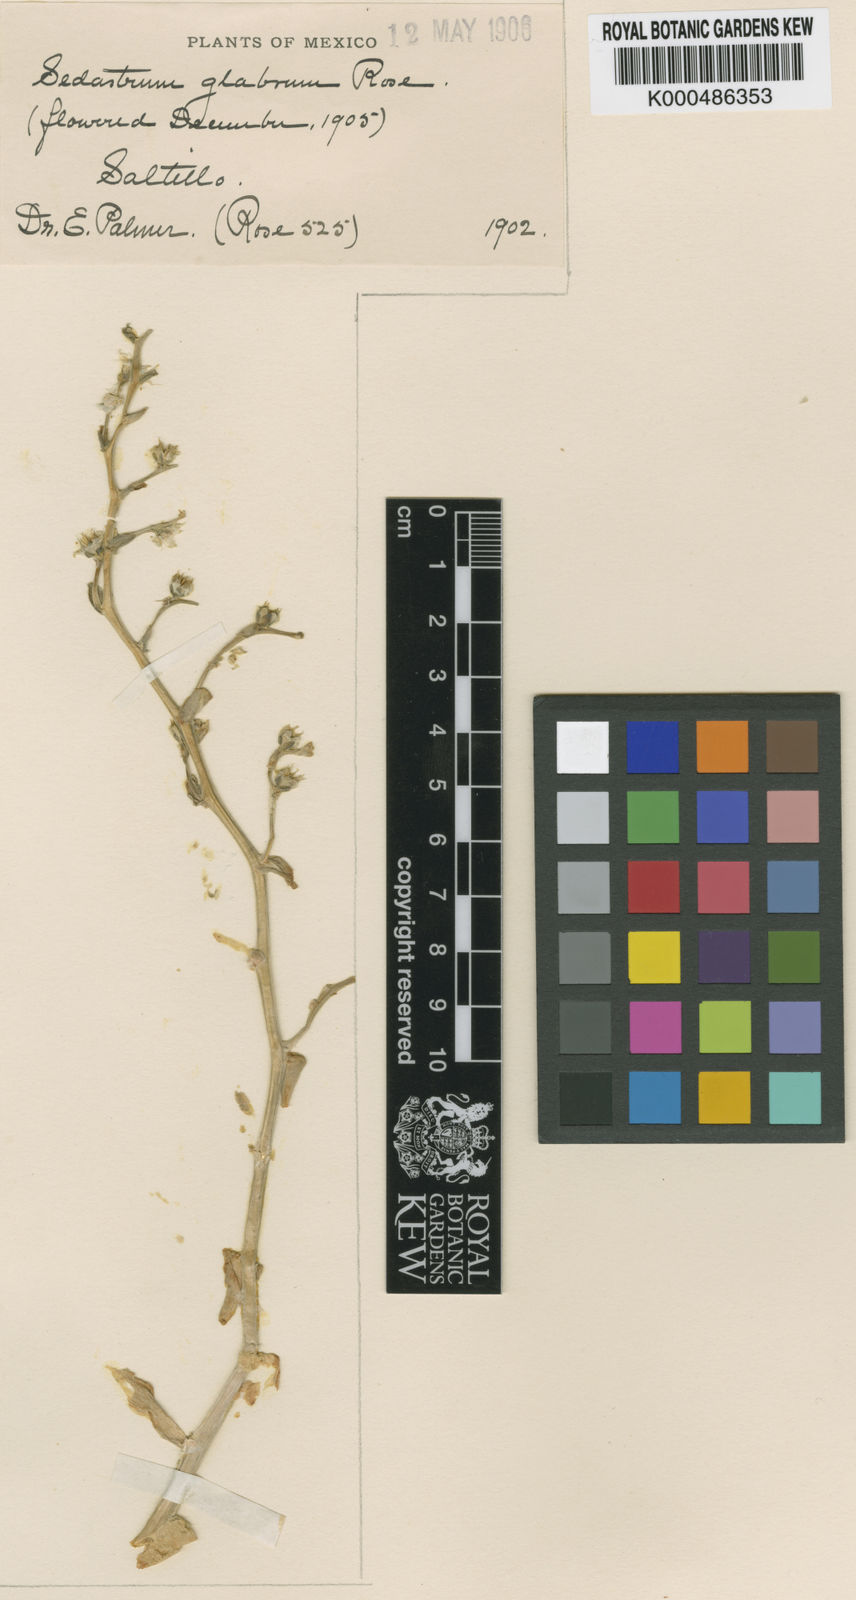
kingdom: Plantae
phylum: Tracheophyta
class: Magnoliopsida
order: Saxifragales
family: Crassulaceae
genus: Sedum
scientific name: Sedum glabrum
